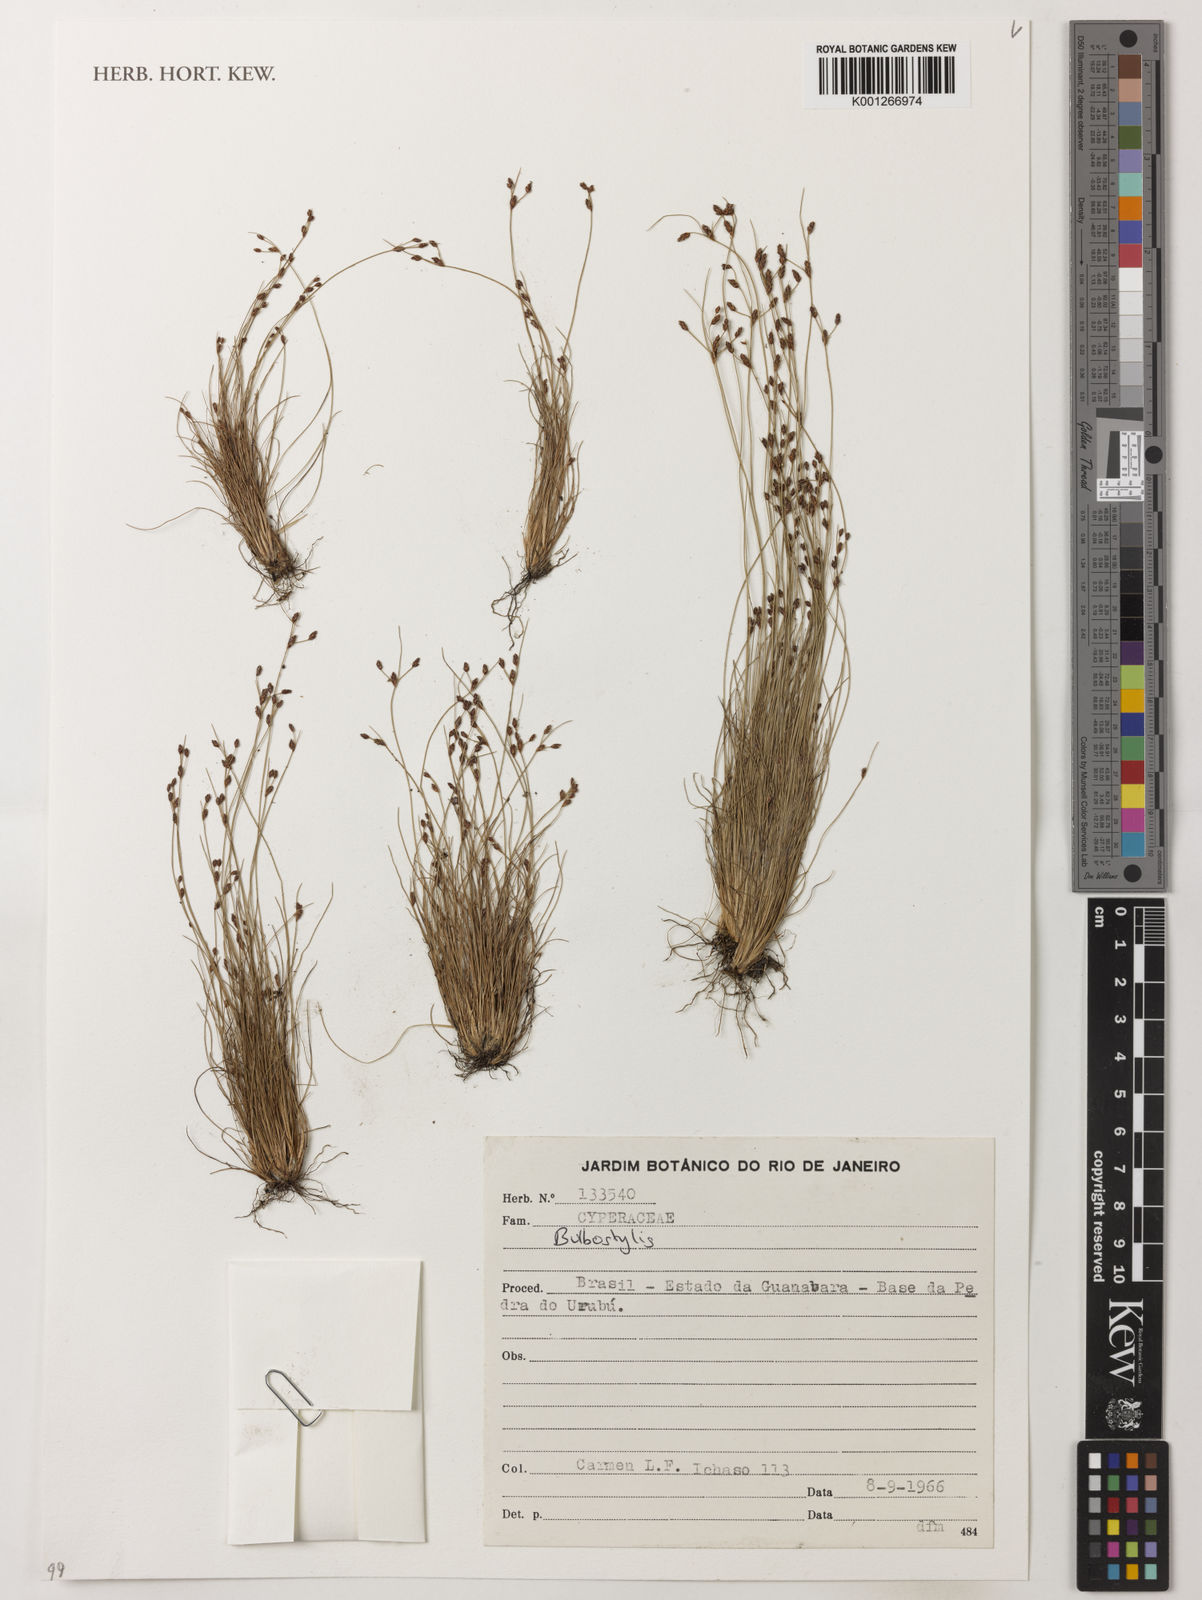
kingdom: Plantae
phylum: Tracheophyta
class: Liliopsida
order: Poales
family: Cyperaceae
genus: Bulbostylis
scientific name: Bulbostylis
